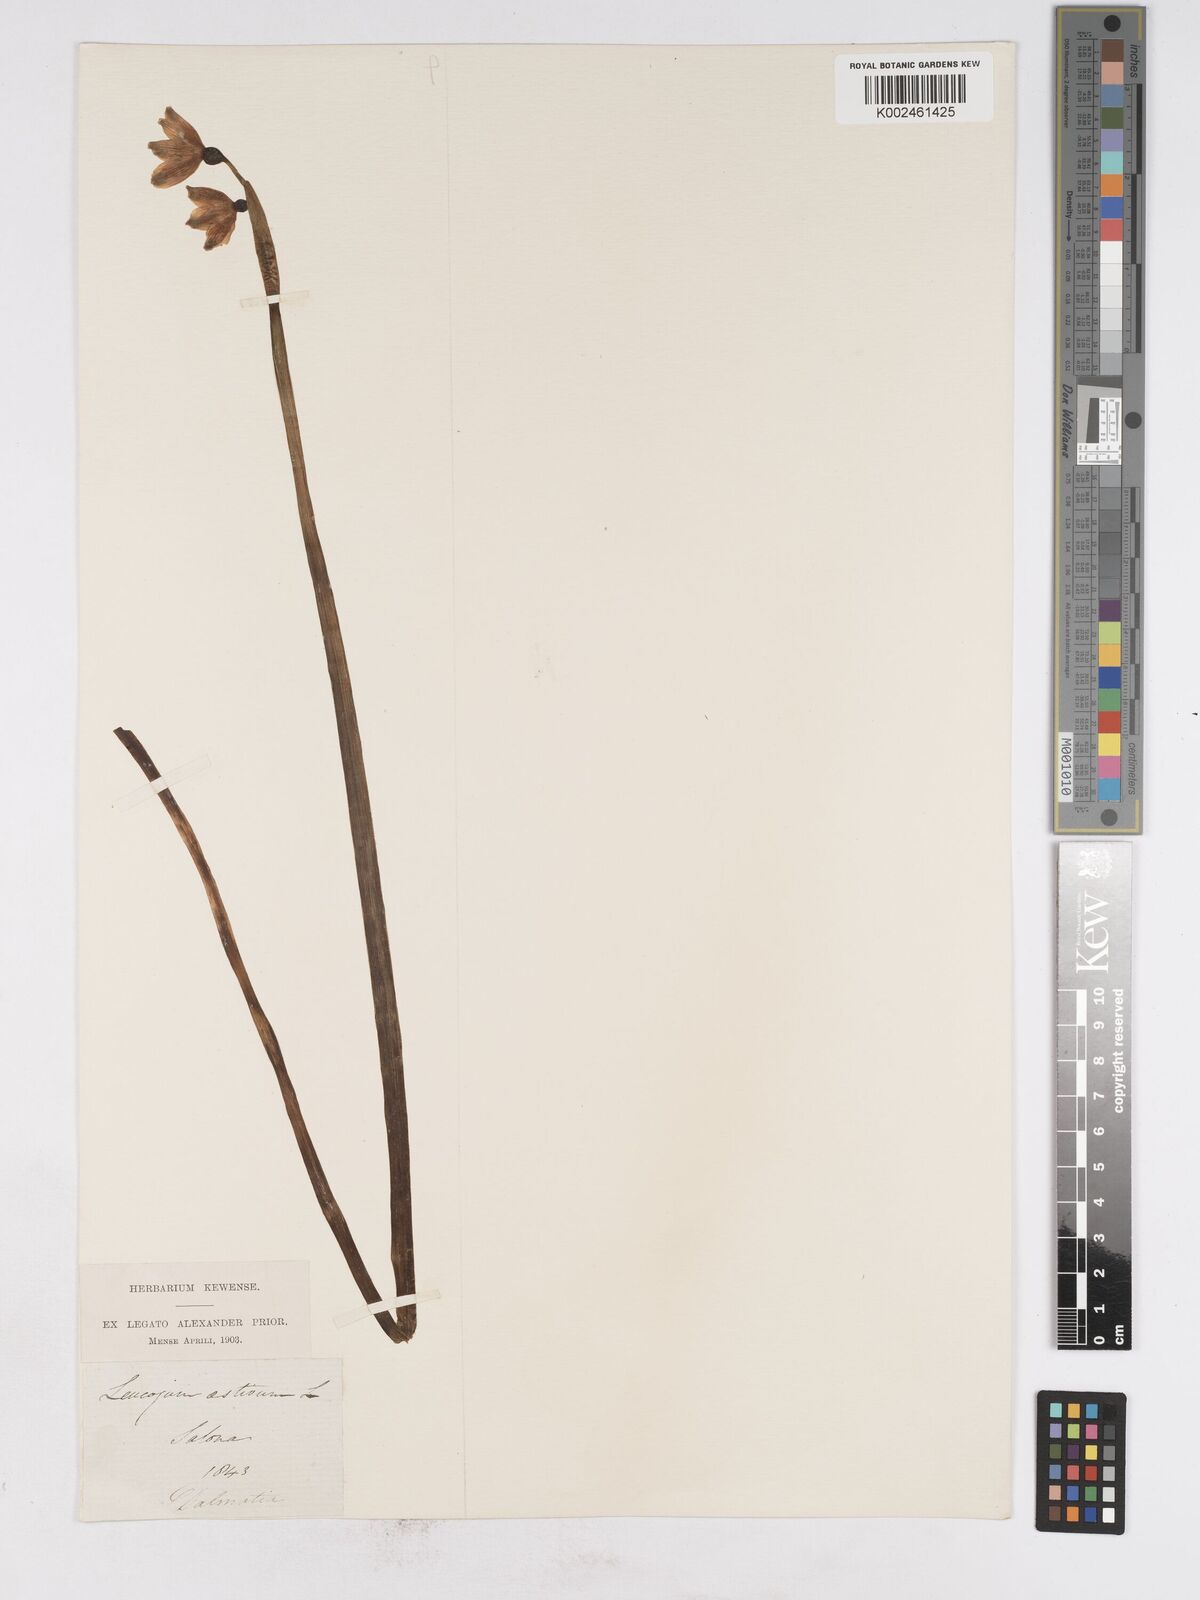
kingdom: Plantae
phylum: Tracheophyta
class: Liliopsida
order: Asparagales
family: Amaryllidaceae
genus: Leucojum
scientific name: Leucojum aestivum
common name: Summer snowflake
